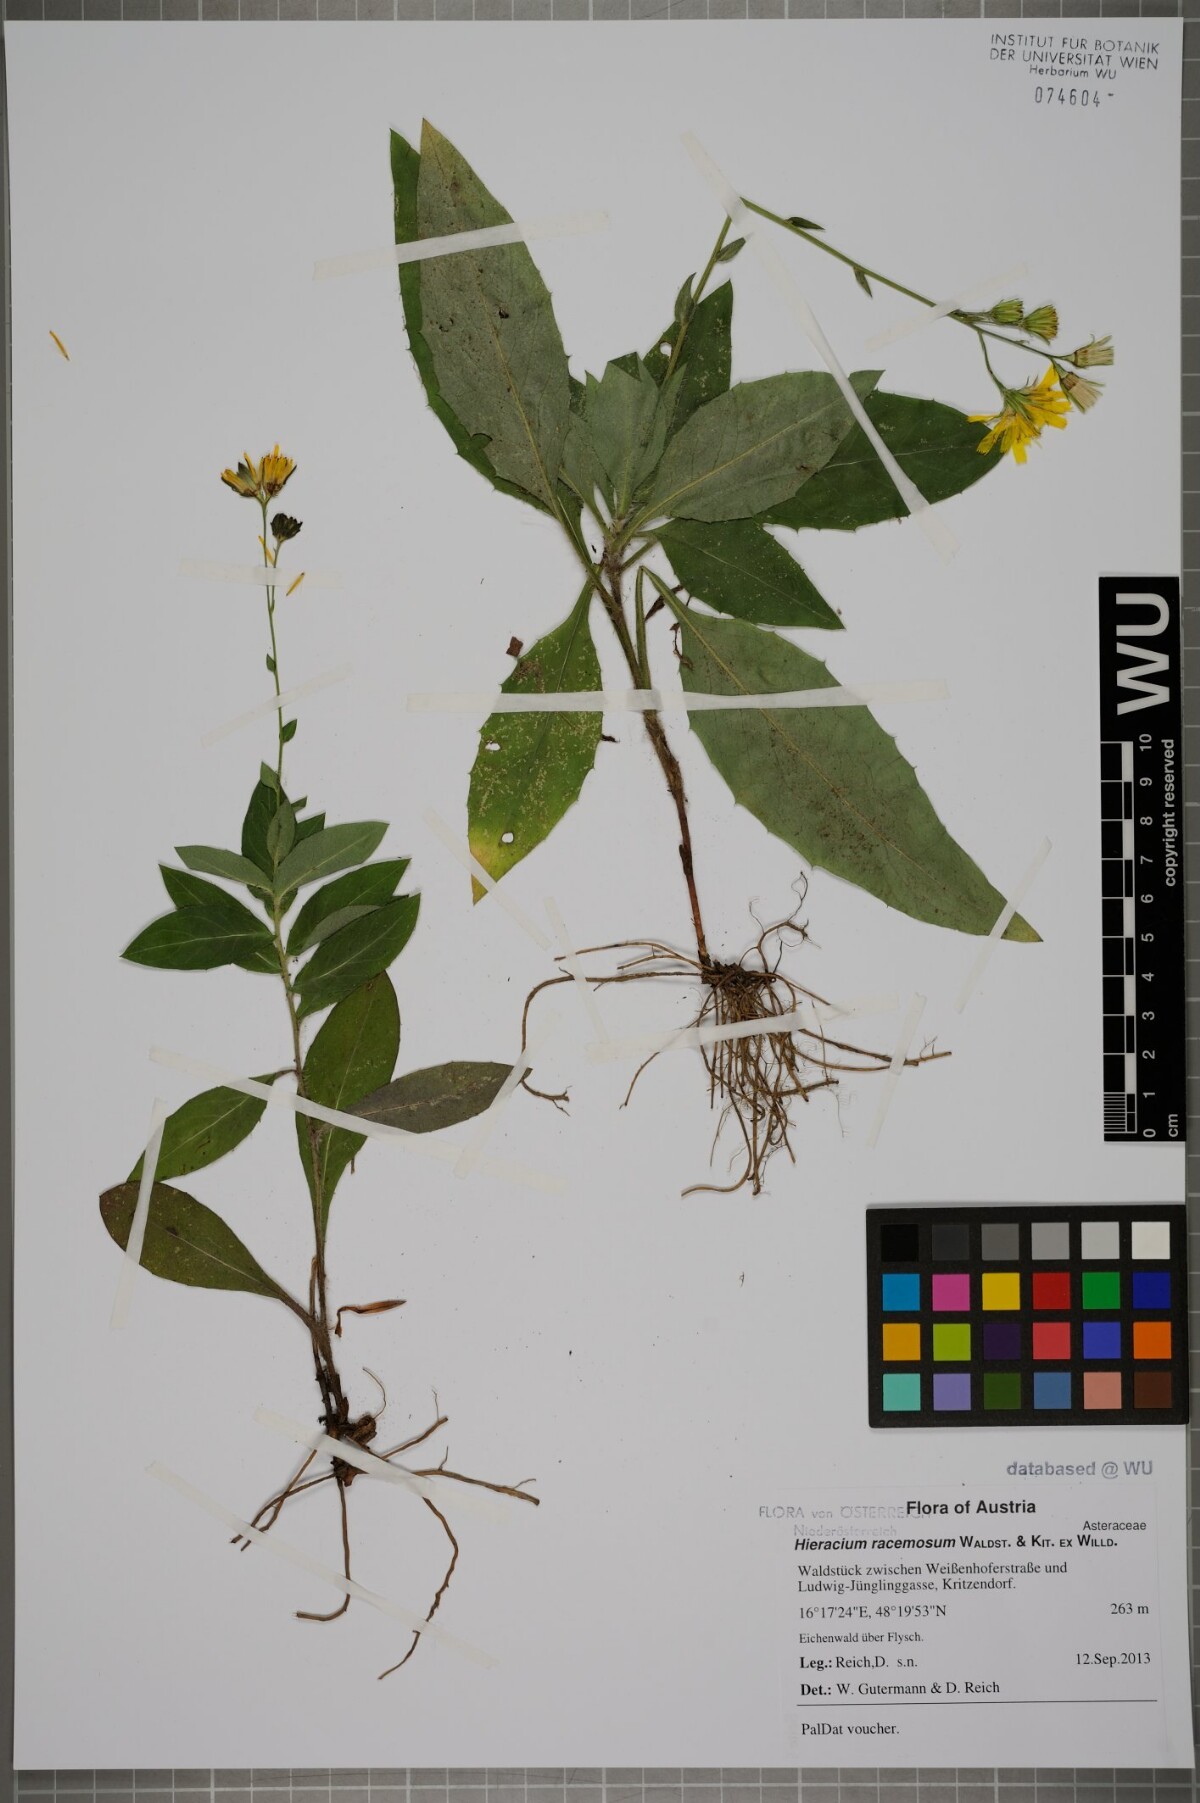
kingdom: Plantae
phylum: Tracheophyta
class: Magnoliopsida
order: Asterales
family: Asteraceae
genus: Hieracium
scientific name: Hieracium racemosum
